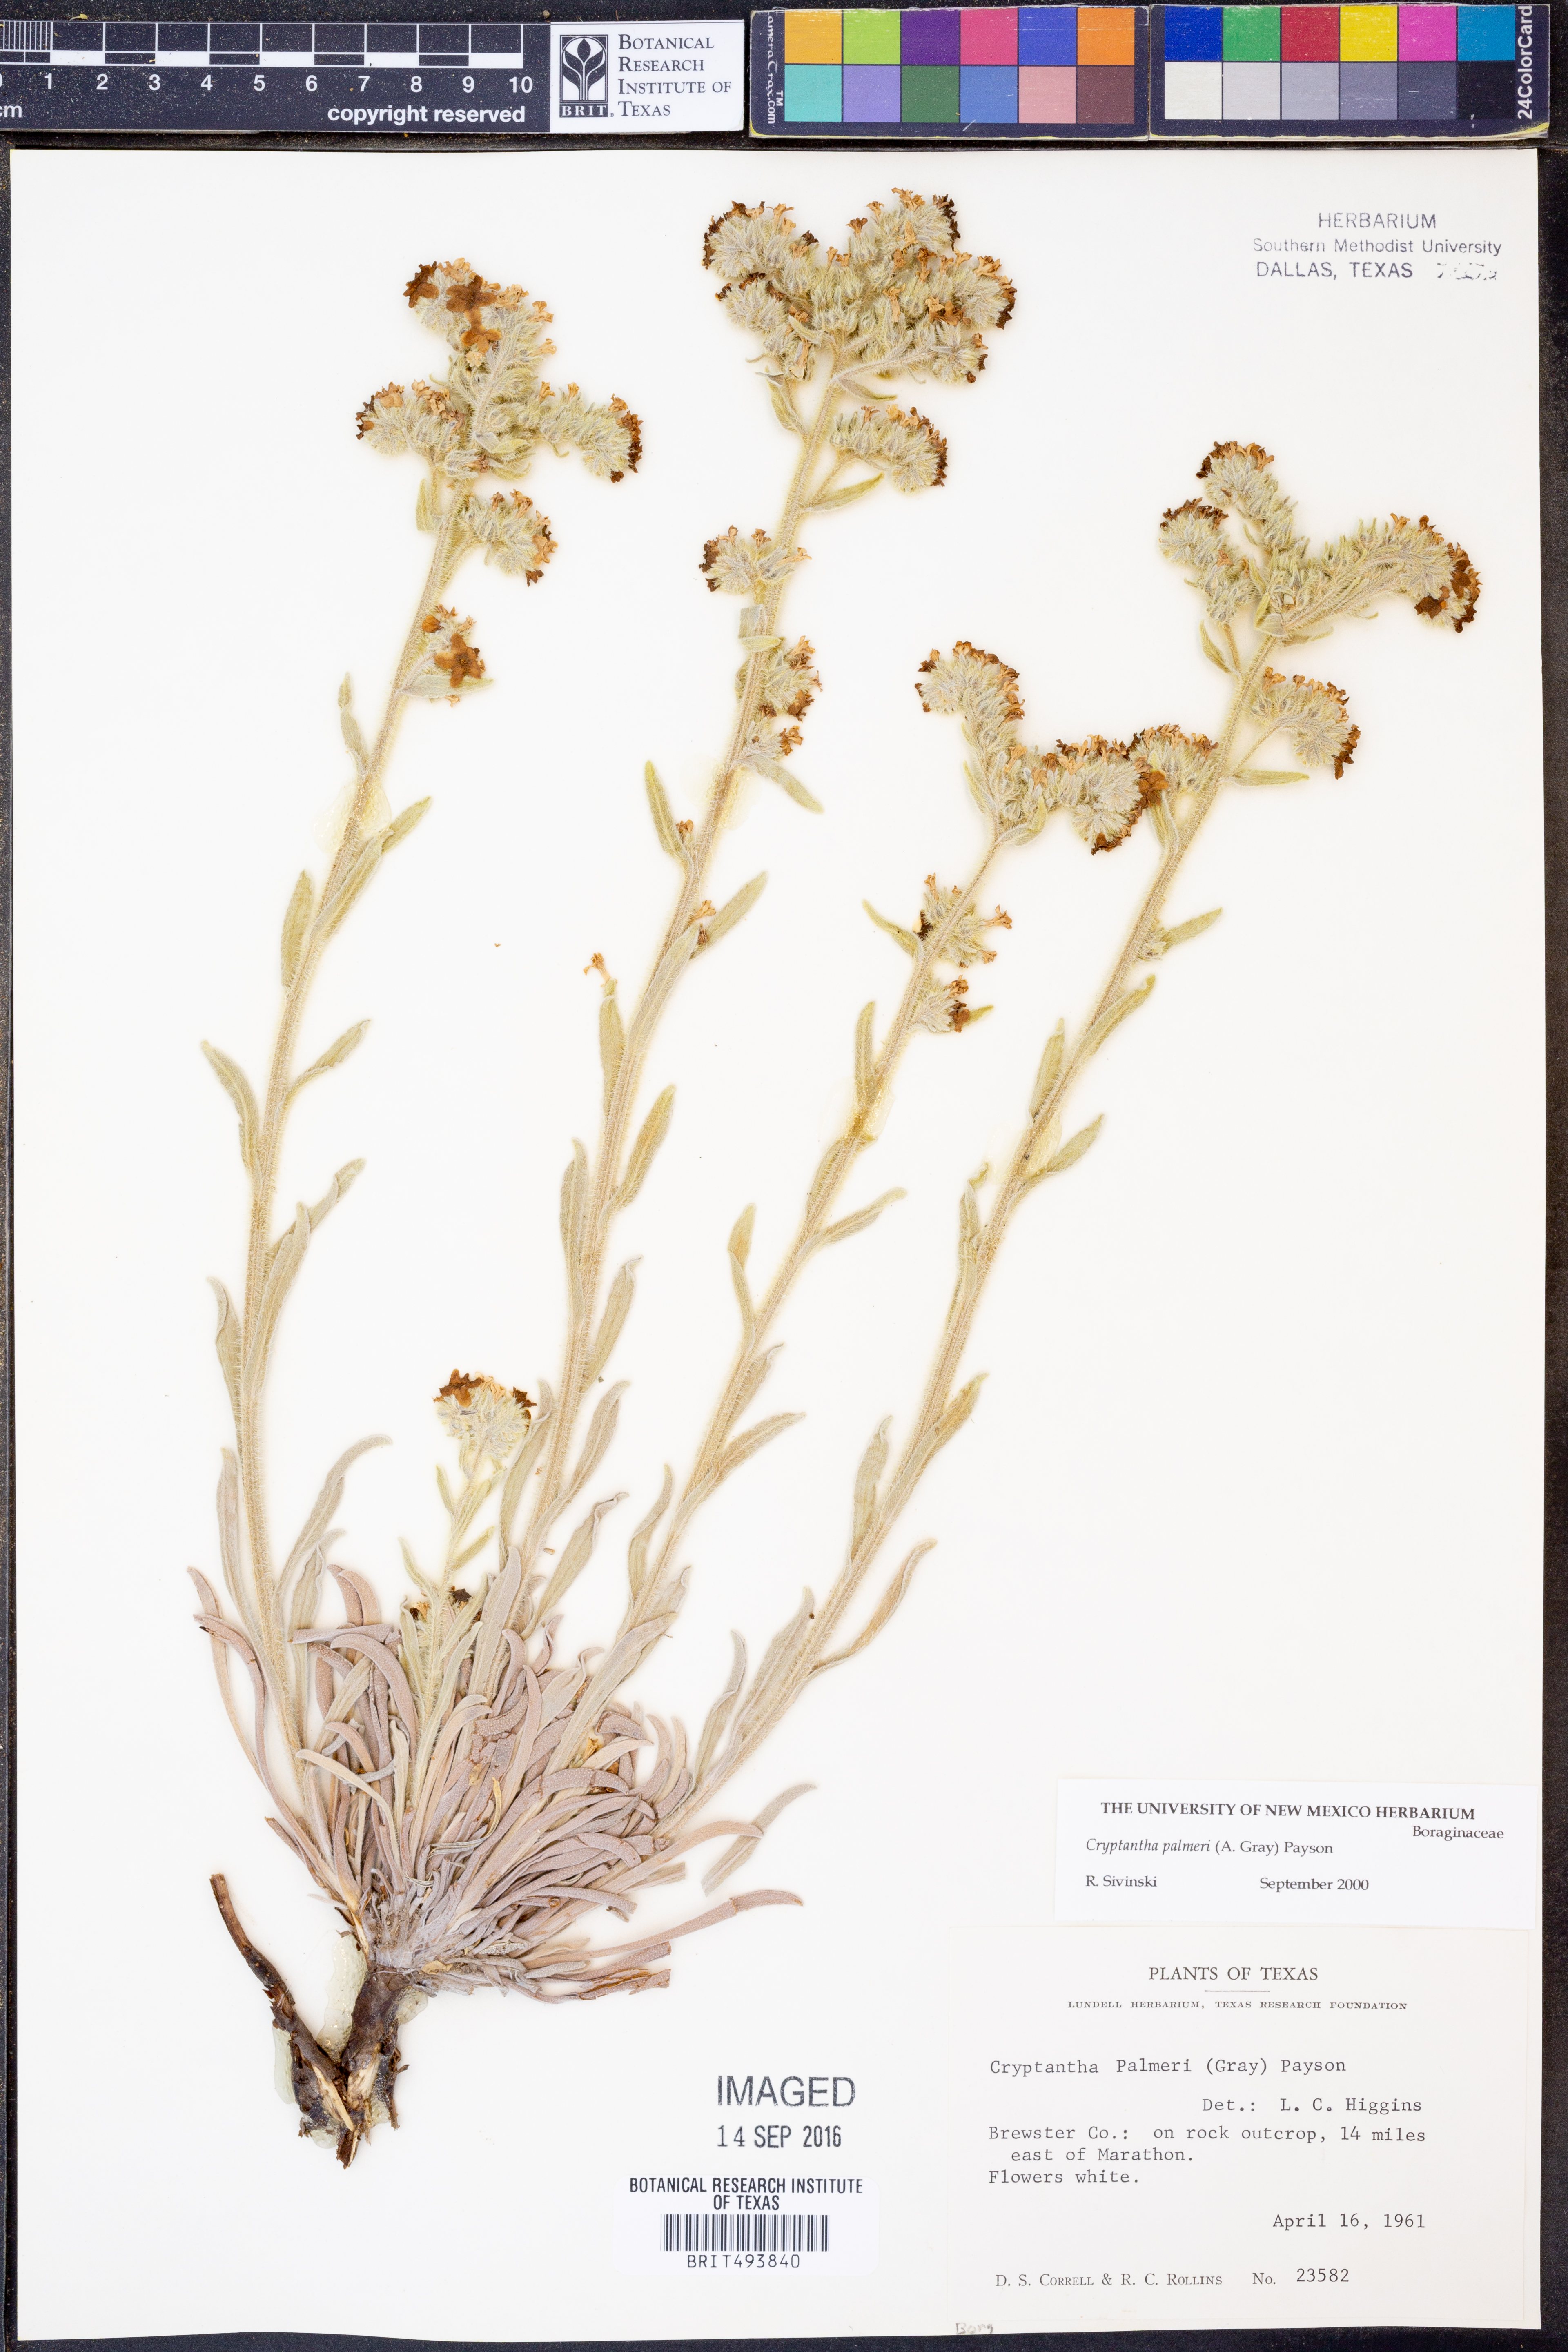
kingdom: Plantae
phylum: Tracheophyta
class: Magnoliopsida
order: Boraginales
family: Boraginaceae
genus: Oreocarya
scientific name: Oreocarya palmeri
